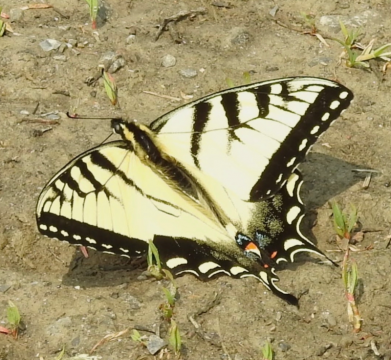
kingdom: Animalia
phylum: Arthropoda
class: Insecta
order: Lepidoptera
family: Papilionidae
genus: Pterourus
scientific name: Pterourus glaucus
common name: Eastern Tiger Swallowtail
